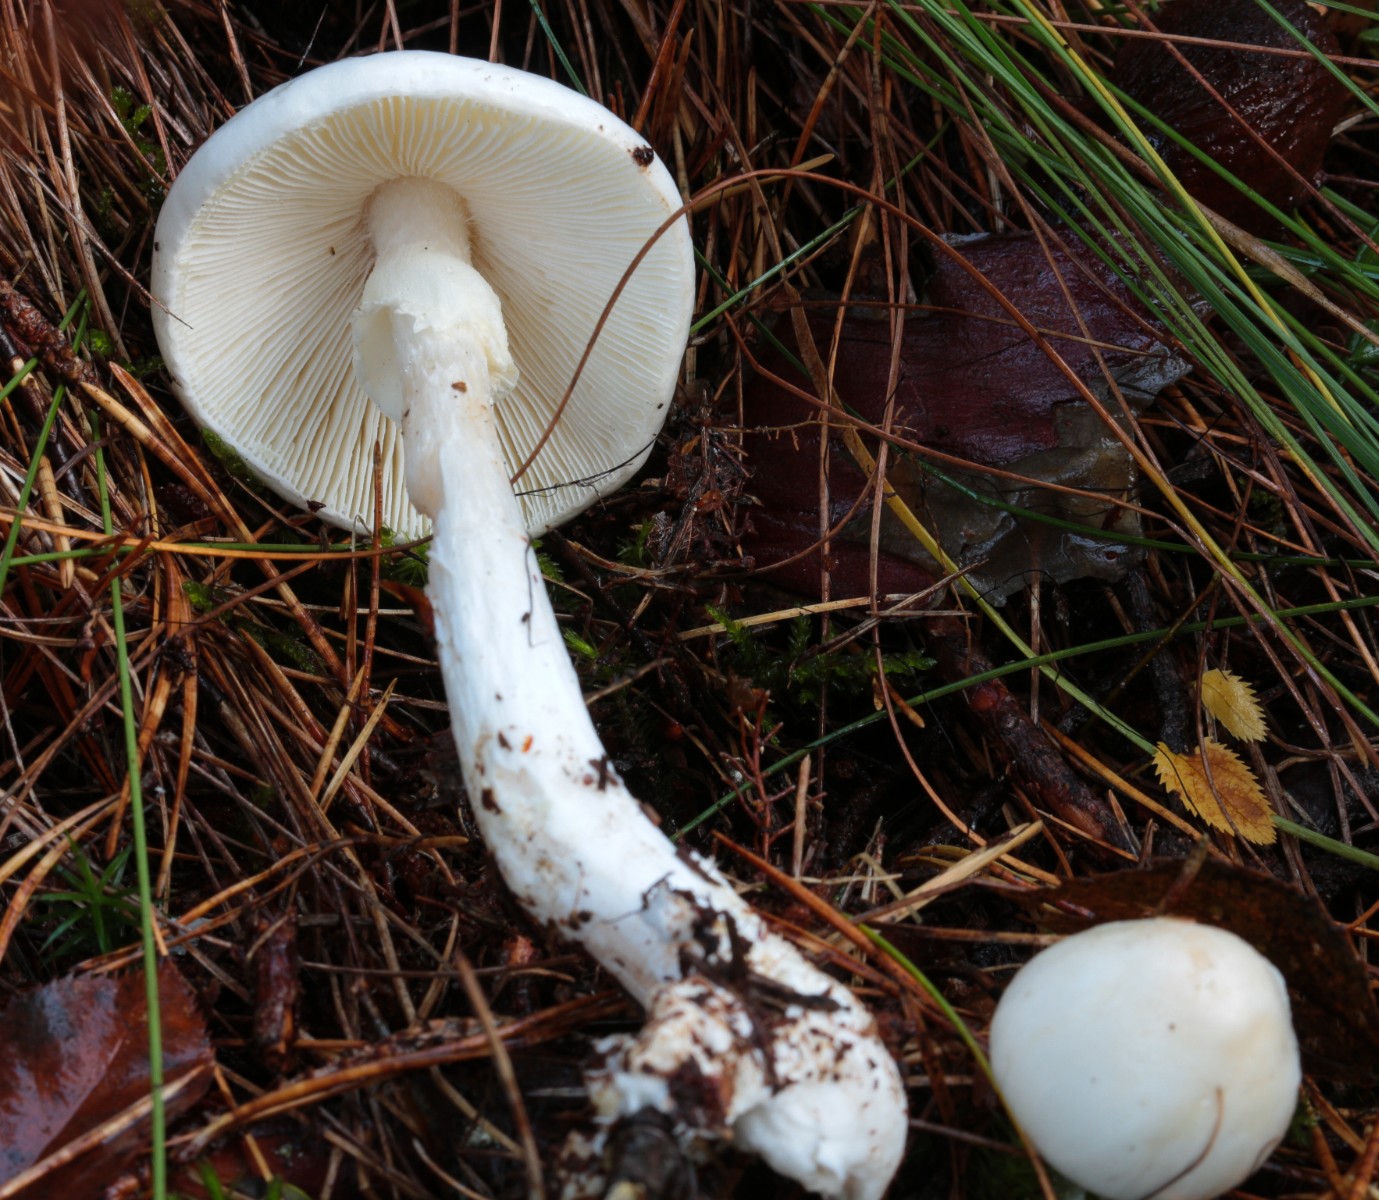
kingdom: Fungi
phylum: Basidiomycota
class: Agaricomycetes
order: Agaricales
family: Amanitaceae
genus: Amanita
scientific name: Amanita virosa
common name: snehvid fluesvamp
